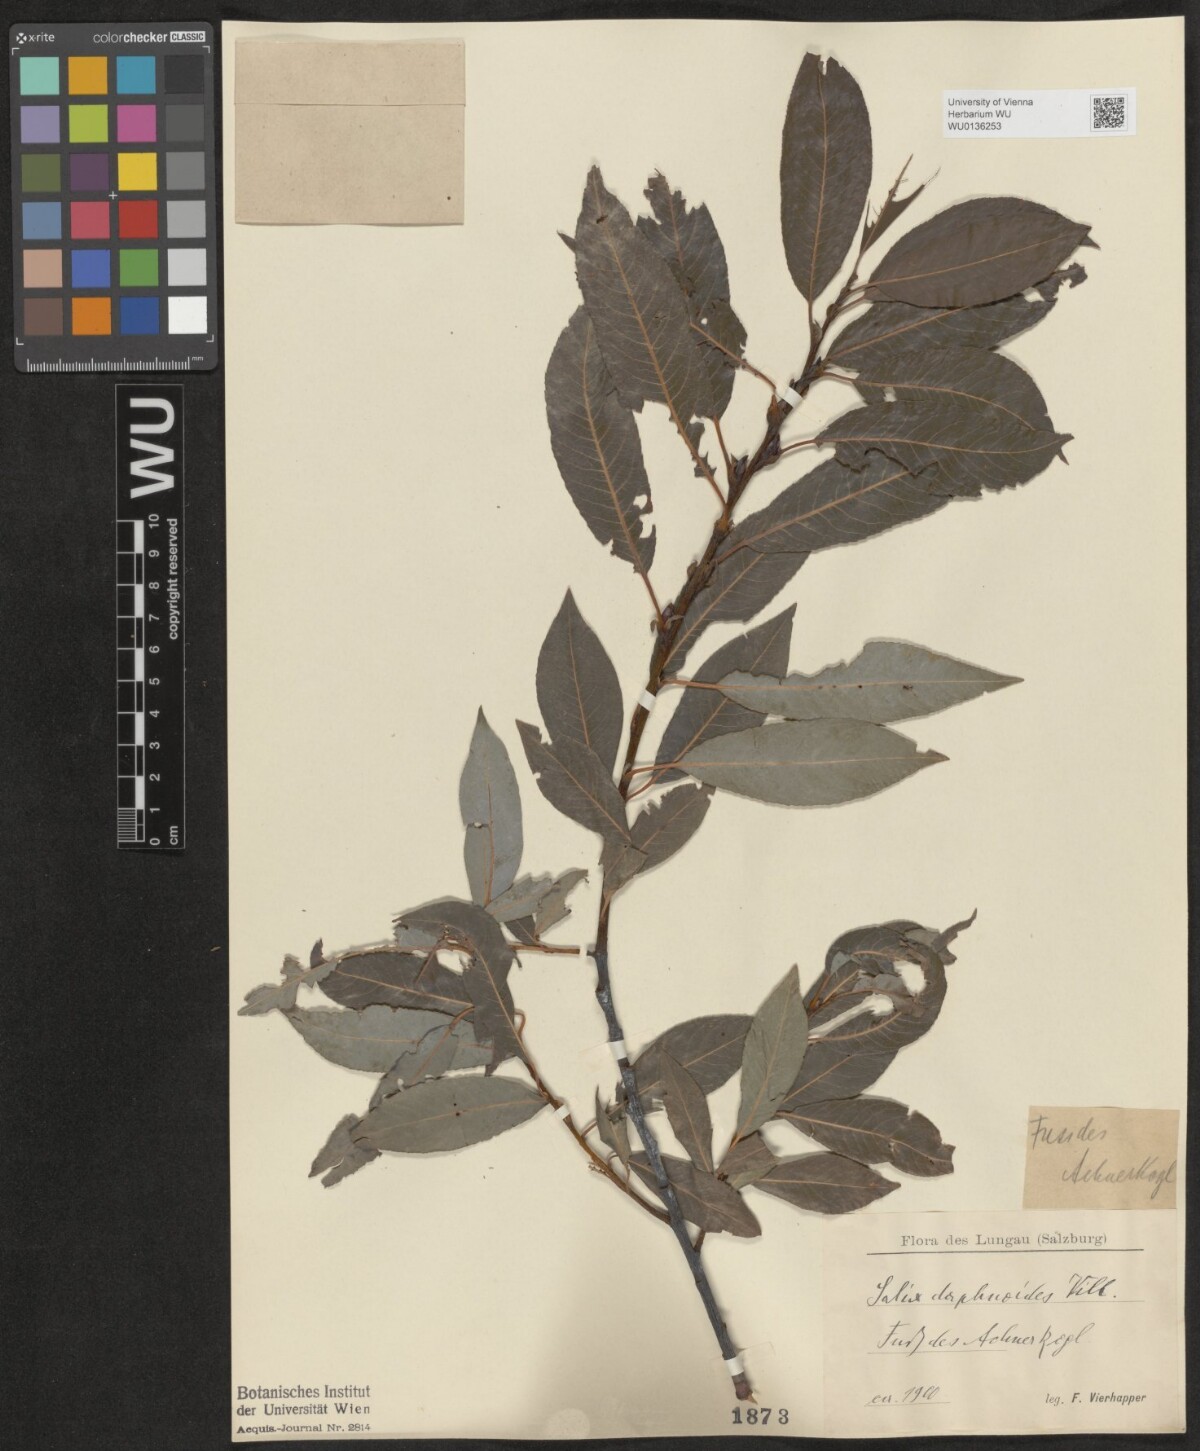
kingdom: Plantae
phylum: Tracheophyta
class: Magnoliopsida
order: Malpighiales
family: Salicaceae
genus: Salix
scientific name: Salix daphnoides
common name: European violet-willow
